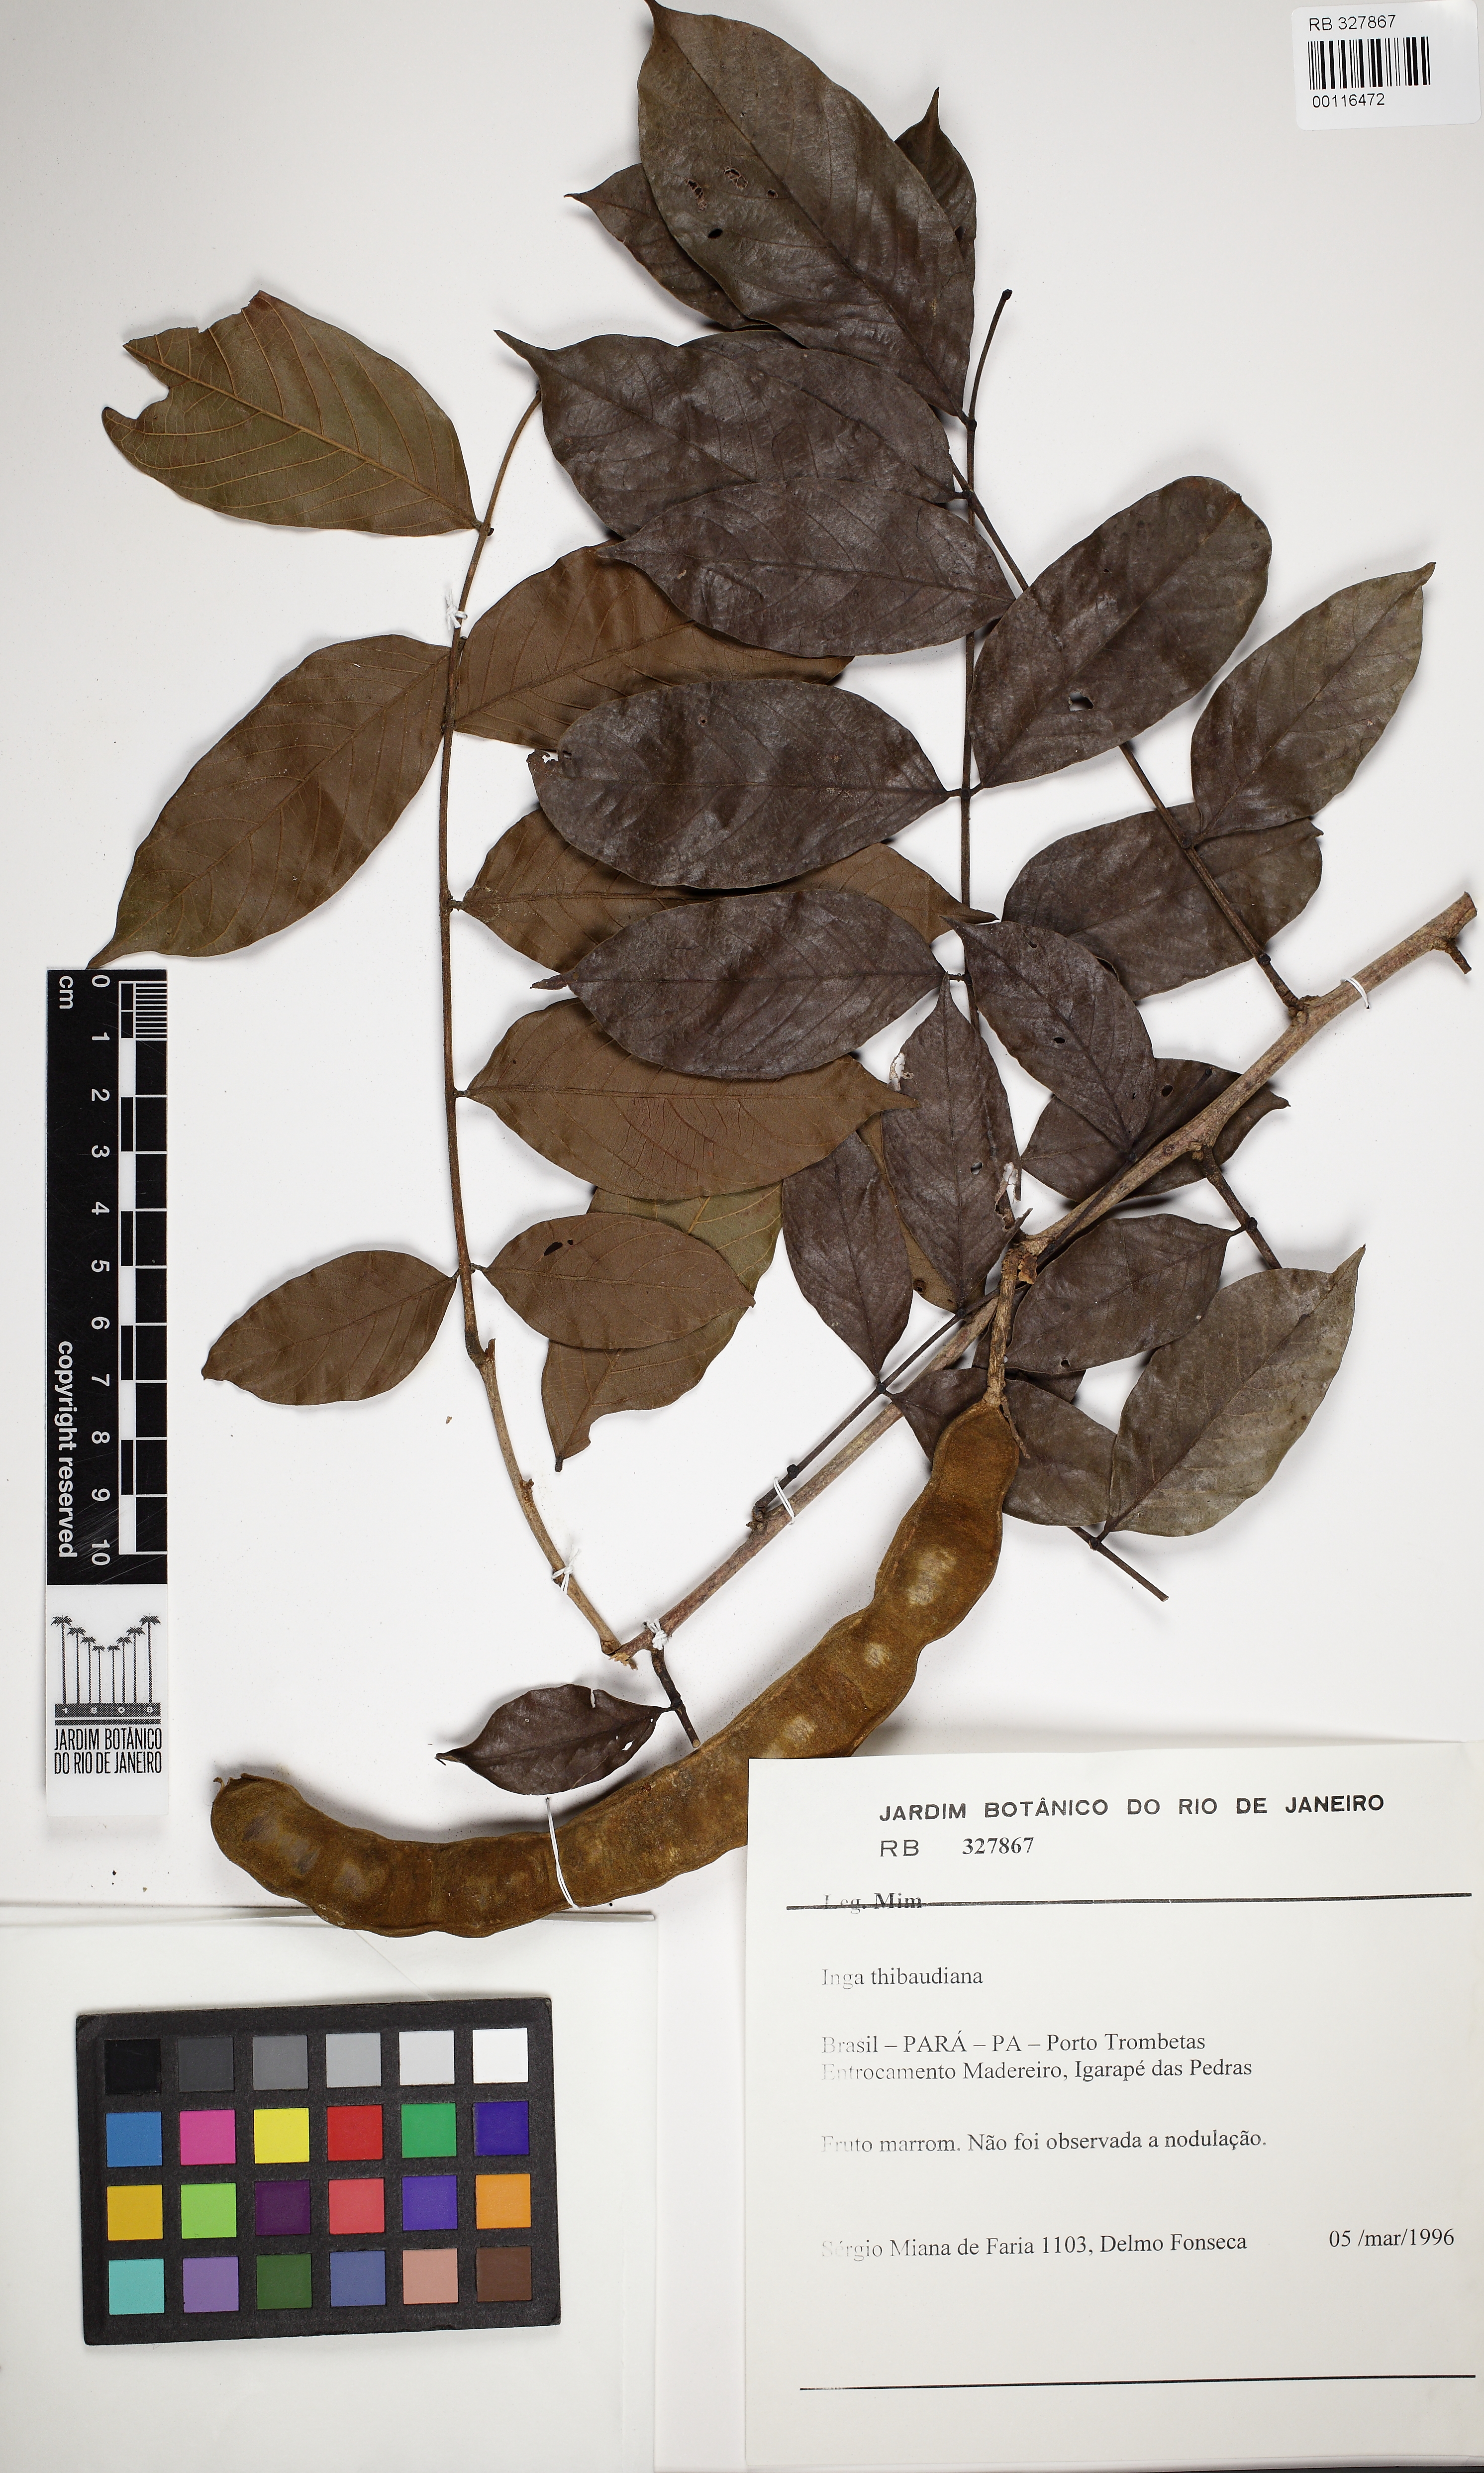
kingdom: Plantae
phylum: Tracheophyta
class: Magnoliopsida
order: Fabales
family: Fabaceae
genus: Inga
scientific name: Inga thibaudiana
